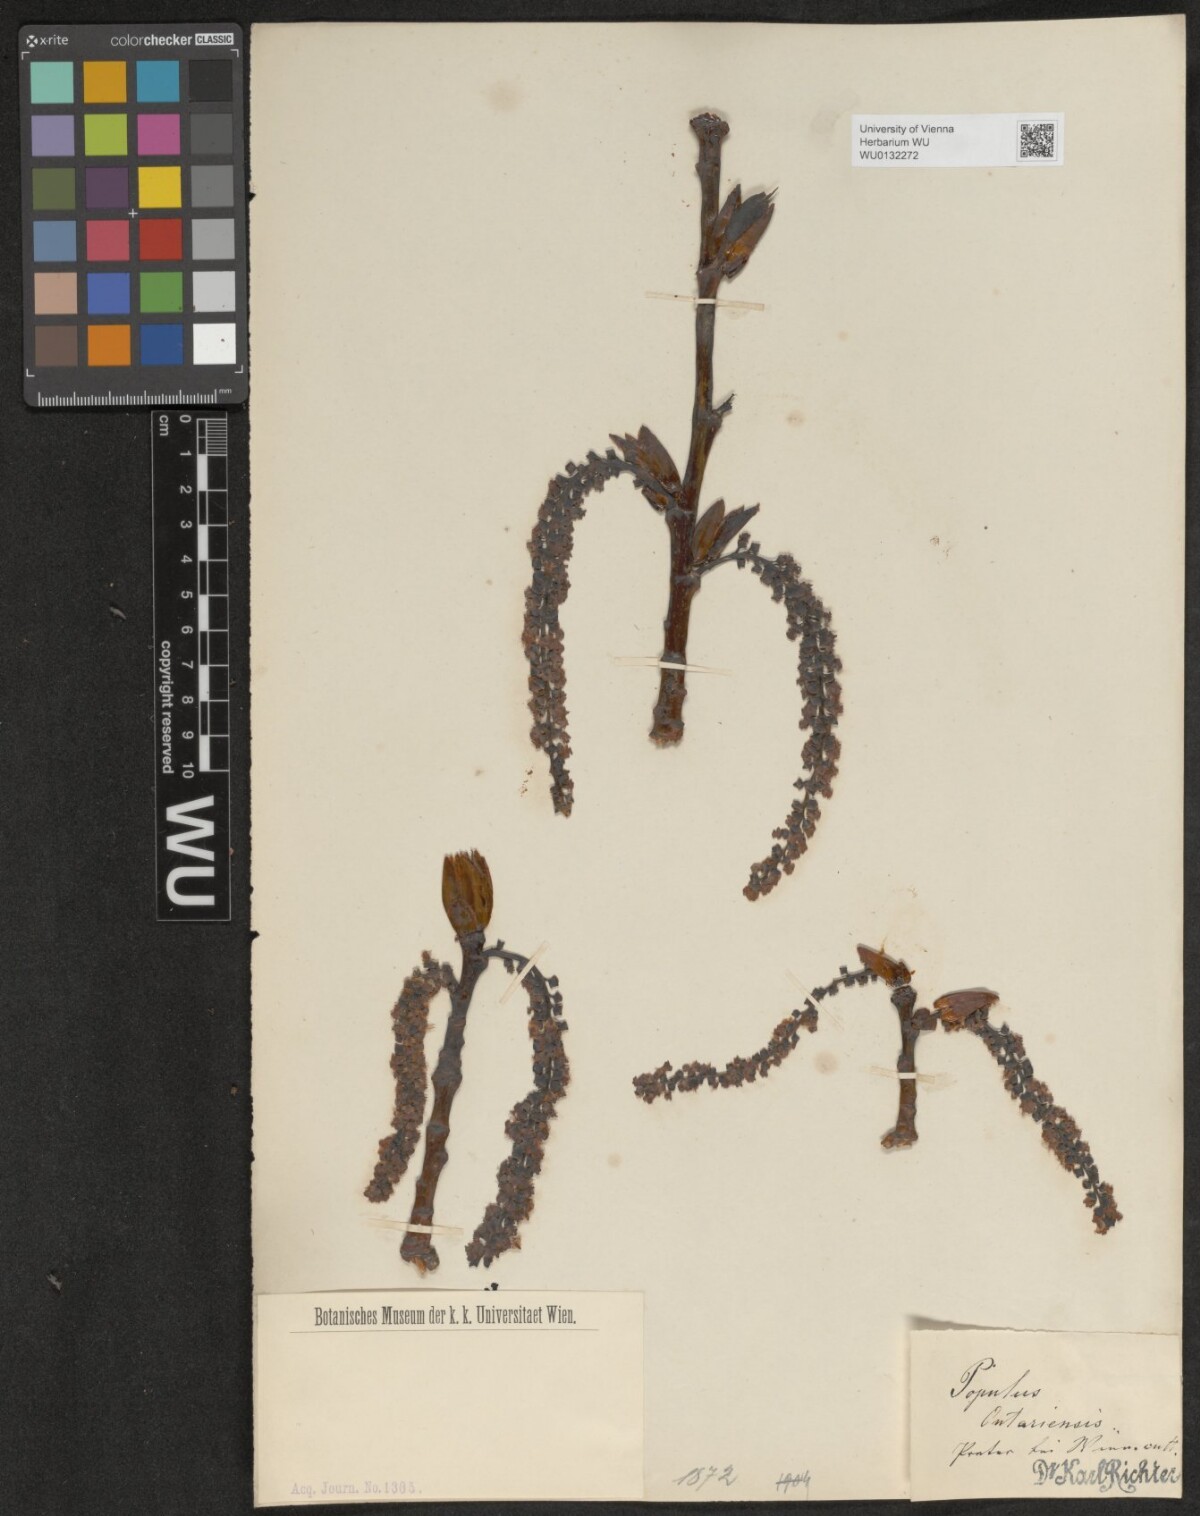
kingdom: Plantae
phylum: Tracheophyta
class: Magnoliopsida
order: Malpighiales
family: Salicaceae
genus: Populus
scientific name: Populus jackii
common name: Balm-of-gilead
